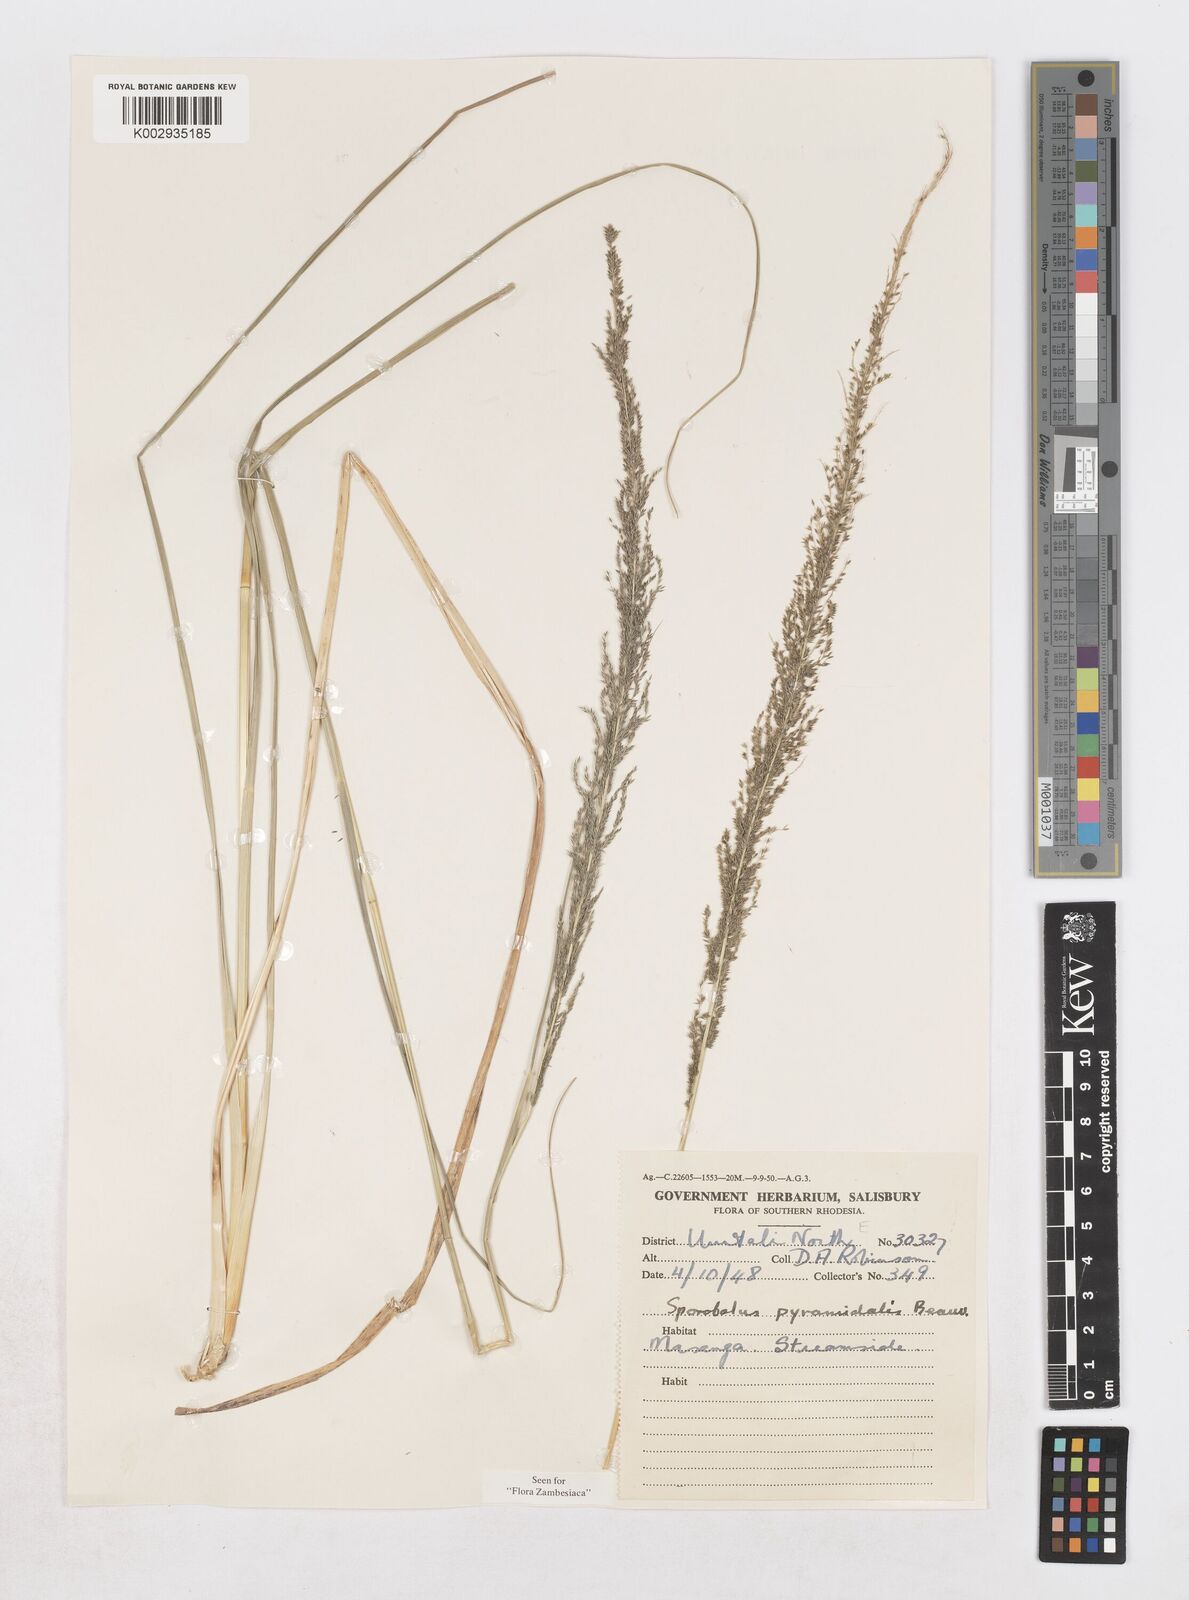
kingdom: Plantae
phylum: Tracheophyta
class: Liliopsida
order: Poales
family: Poaceae
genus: Sporobolus
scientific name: Sporobolus pyramidalis
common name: West indian dropseed
